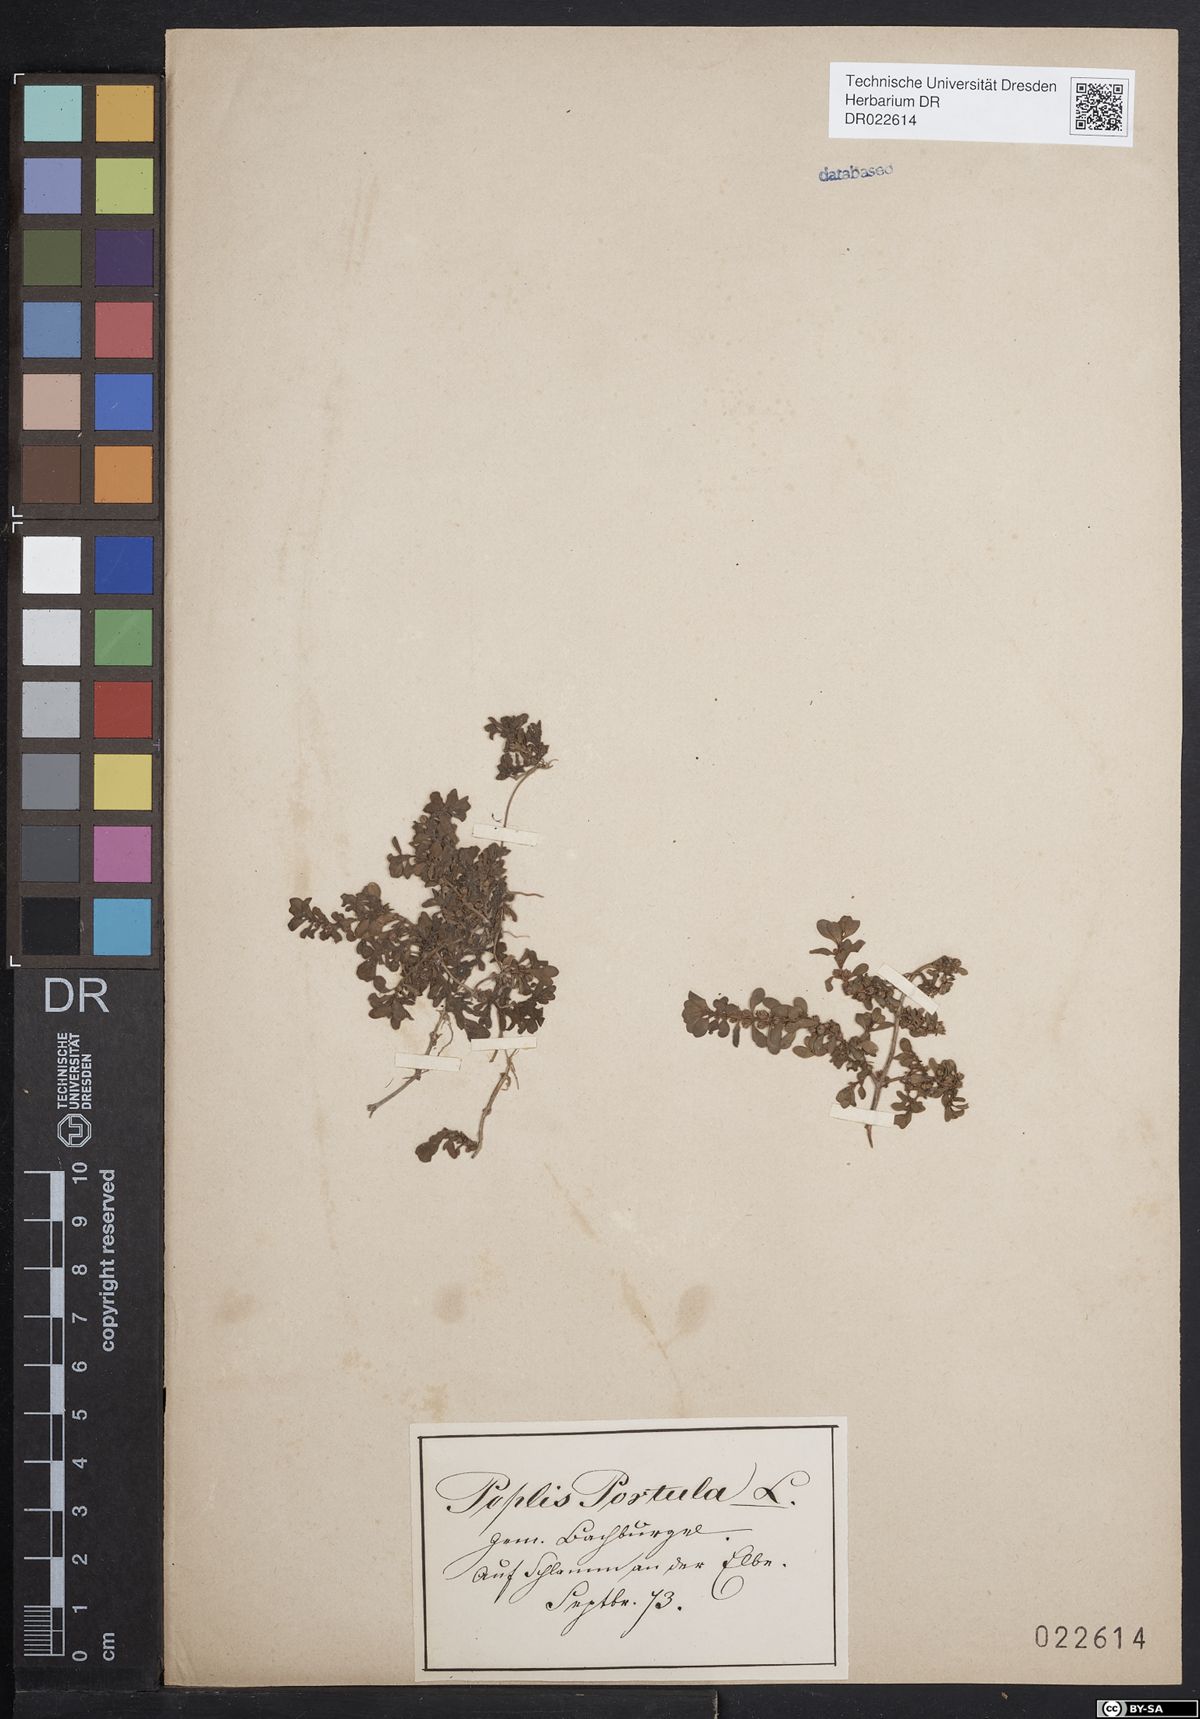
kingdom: Plantae
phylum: Tracheophyta
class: Magnoliopsida
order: Myrtales
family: Lythraceae
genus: Lythrum
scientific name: Lythrum portula
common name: Water purslane
